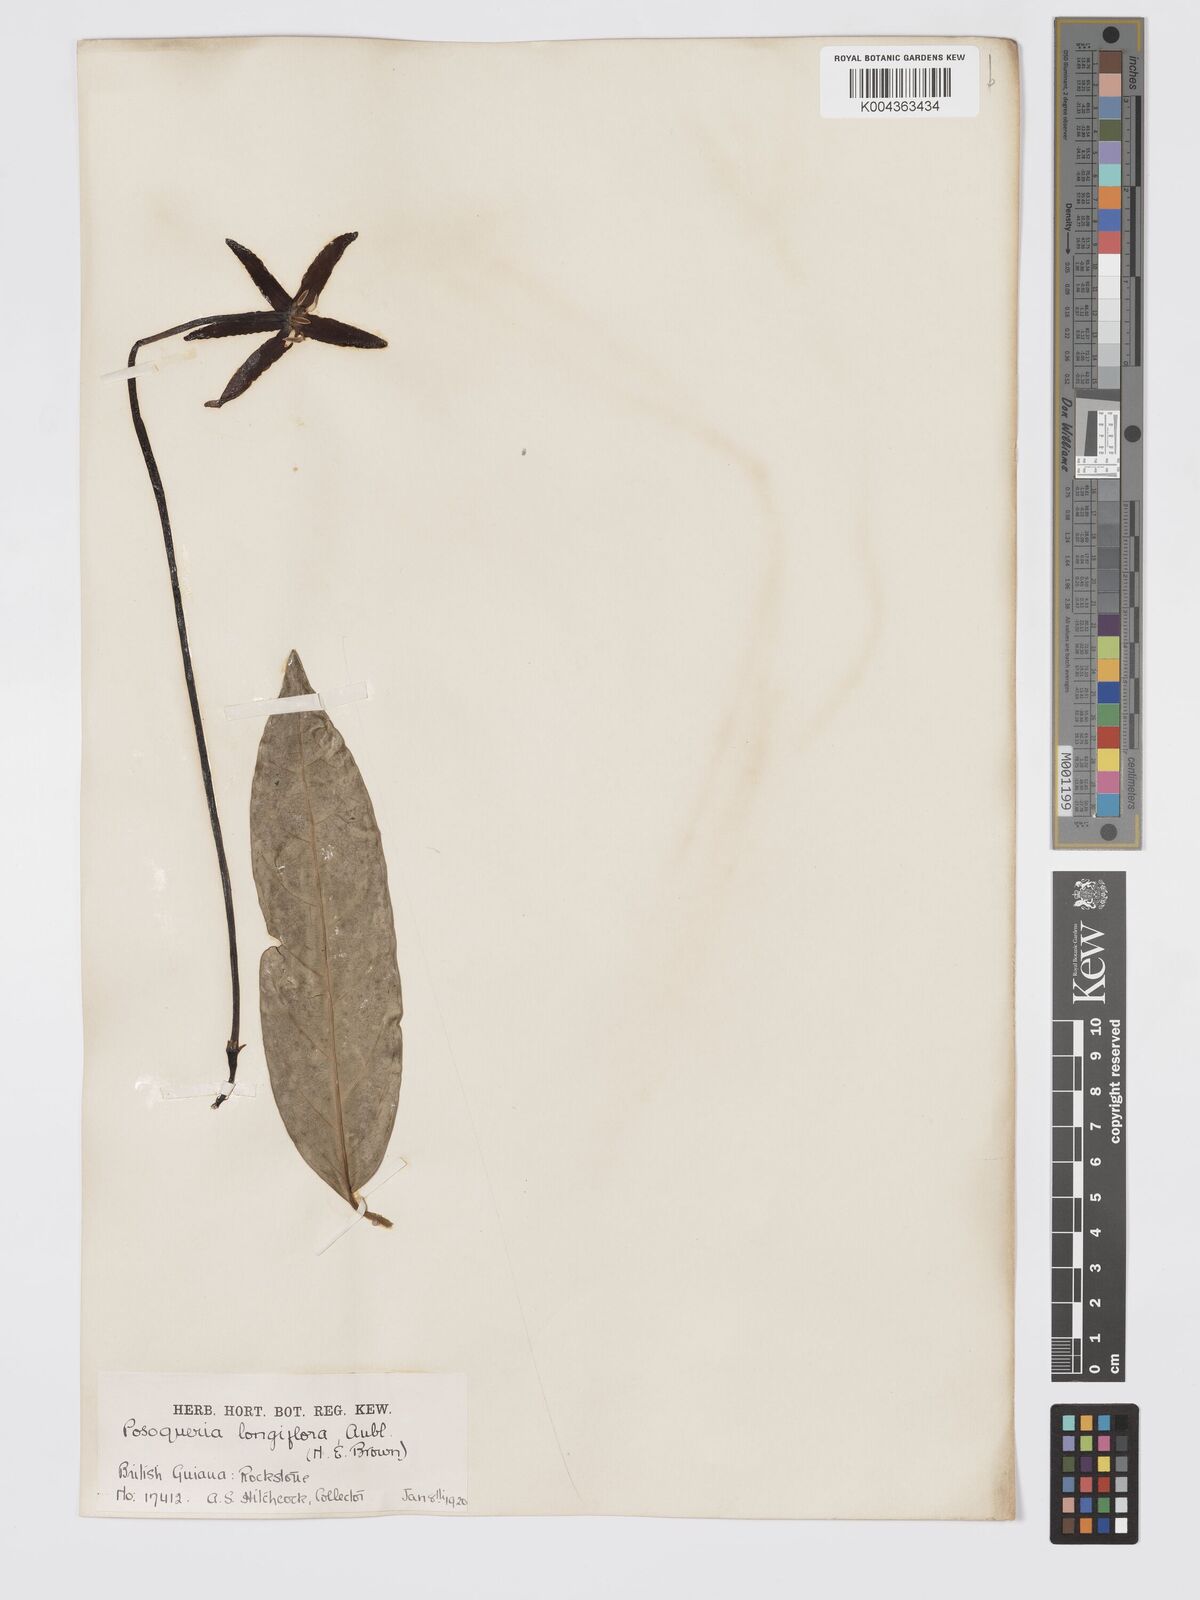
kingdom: Plantae
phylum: Tracheophyta
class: Magnoliopsida
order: Gentianales
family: Rubiaceae
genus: Posoqueria
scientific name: Posoqueria
